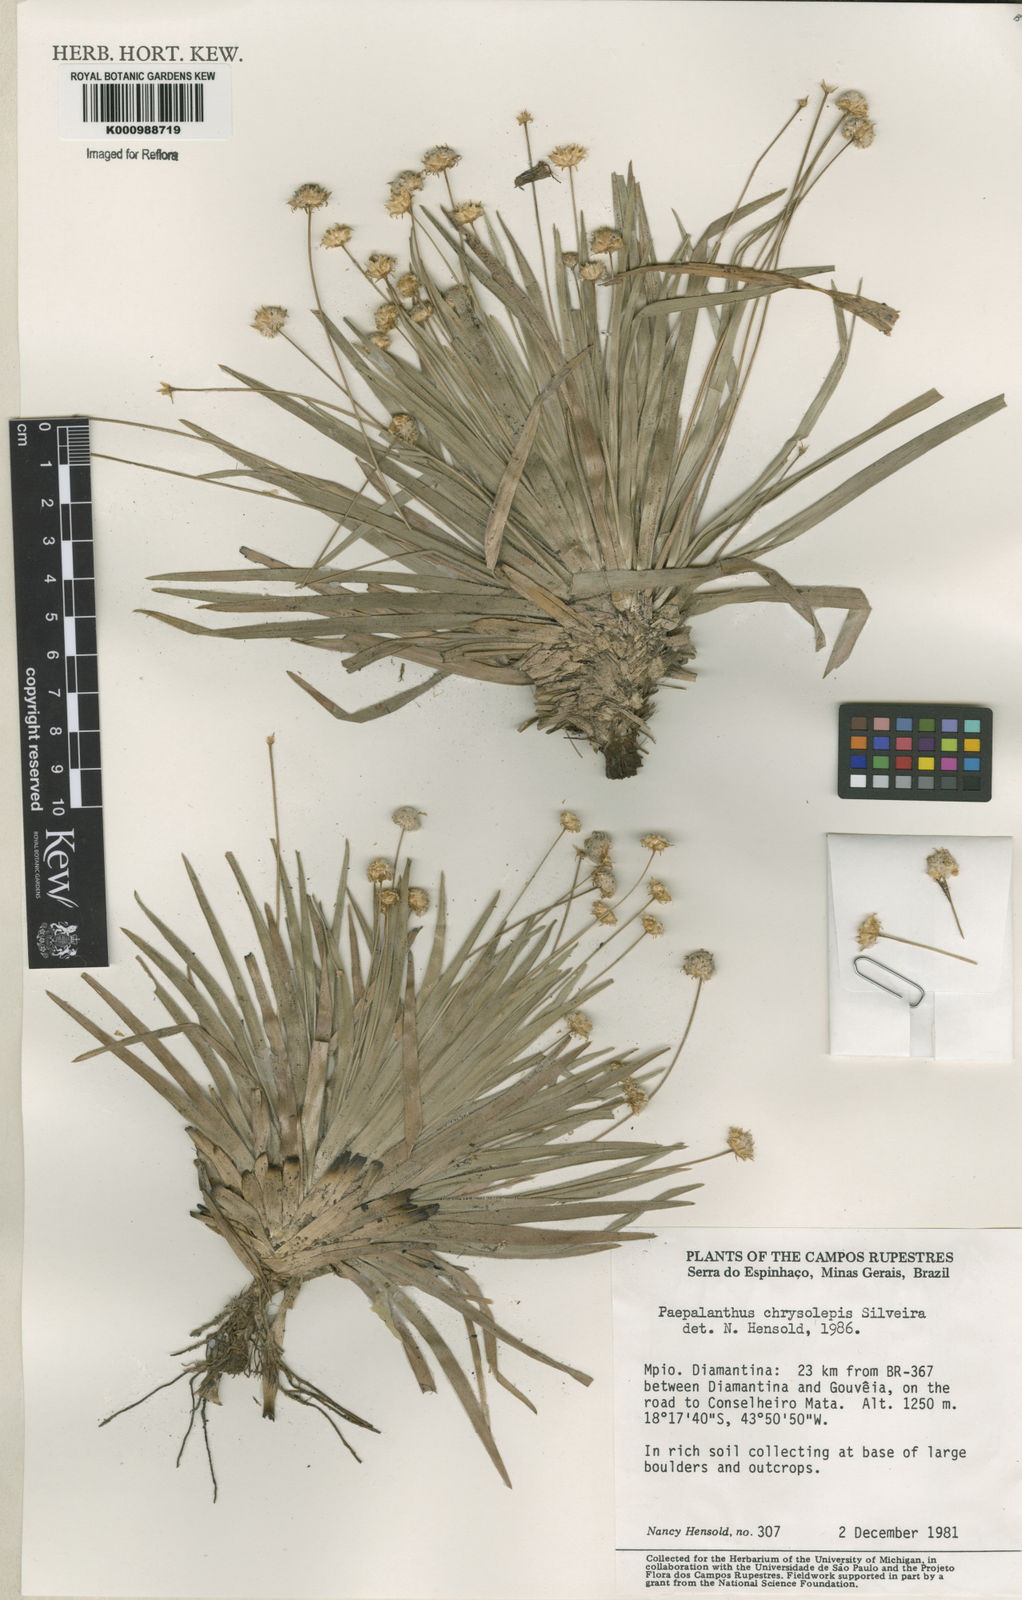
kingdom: Plantae
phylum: Tracheophyta
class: Liliopsida
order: Poales
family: Eriocaulaceae
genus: Paepalanthus
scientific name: Paepalanthus chrysolepis
